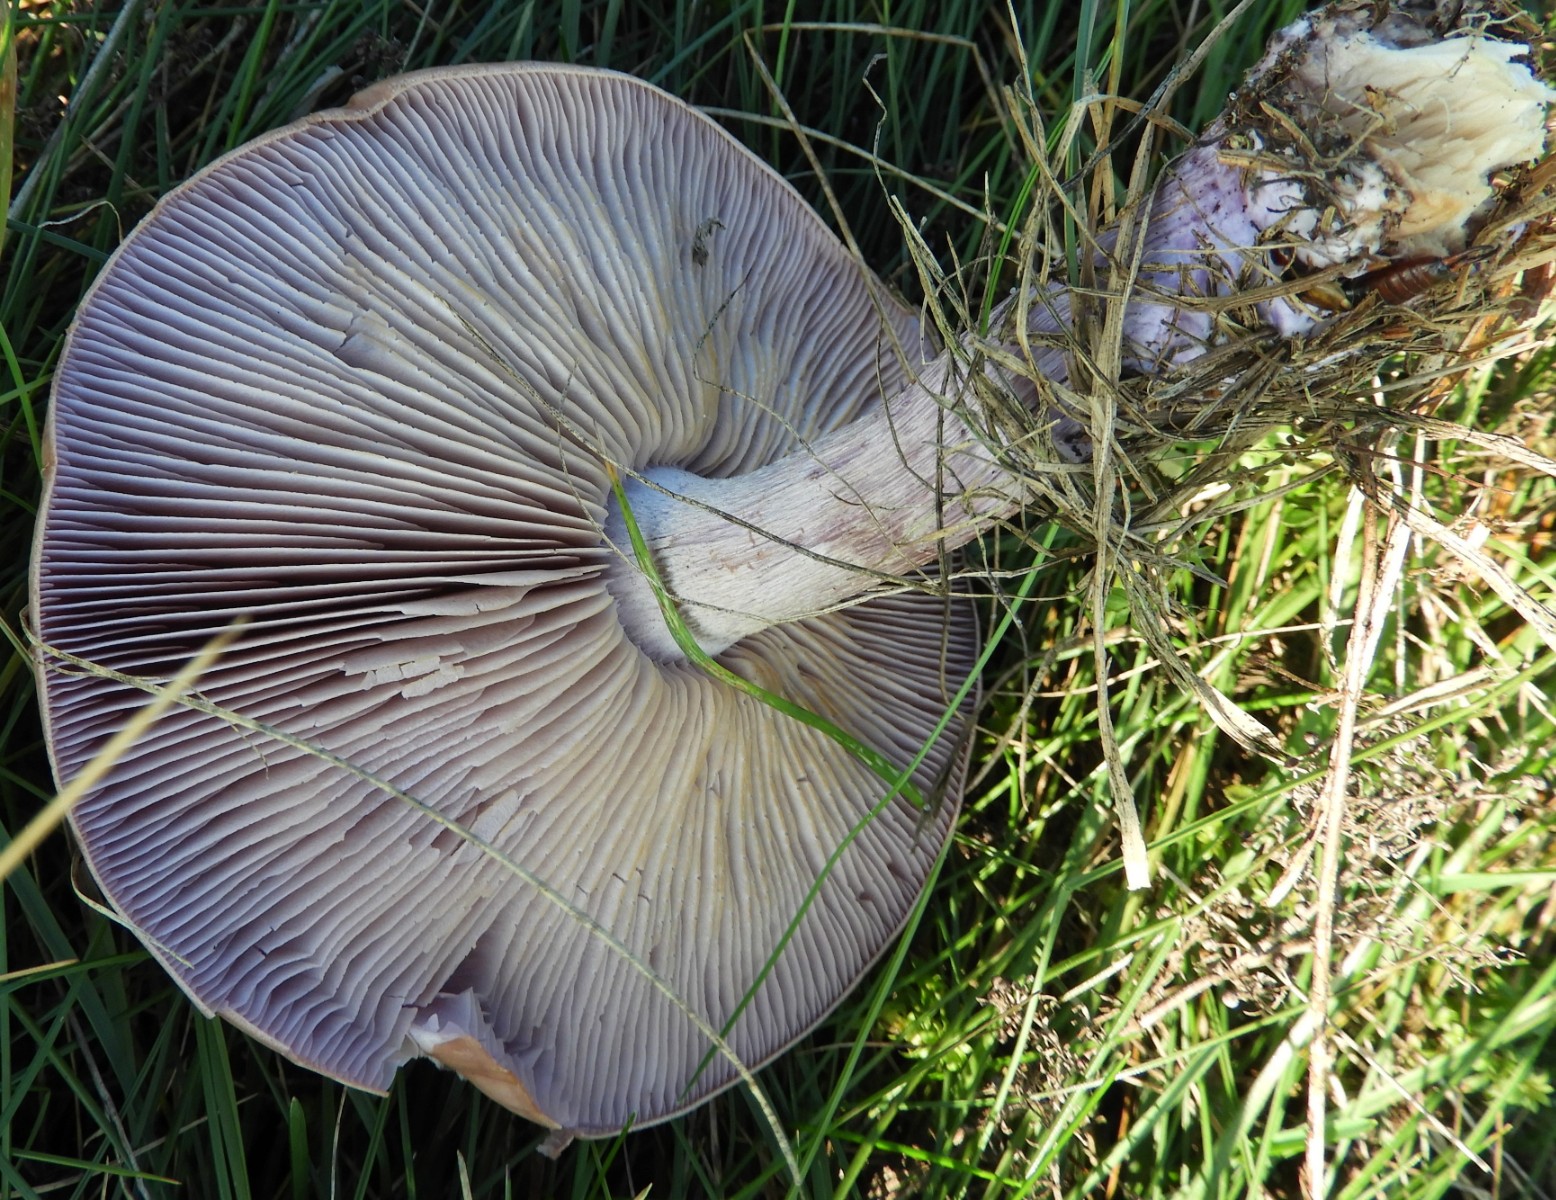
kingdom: Fungi
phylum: Basidiomycota
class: Agaricomycetes
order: Agaricales
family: Tricholomataceae
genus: Lepista
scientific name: Lepista nuda
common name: violet hekseringshat
